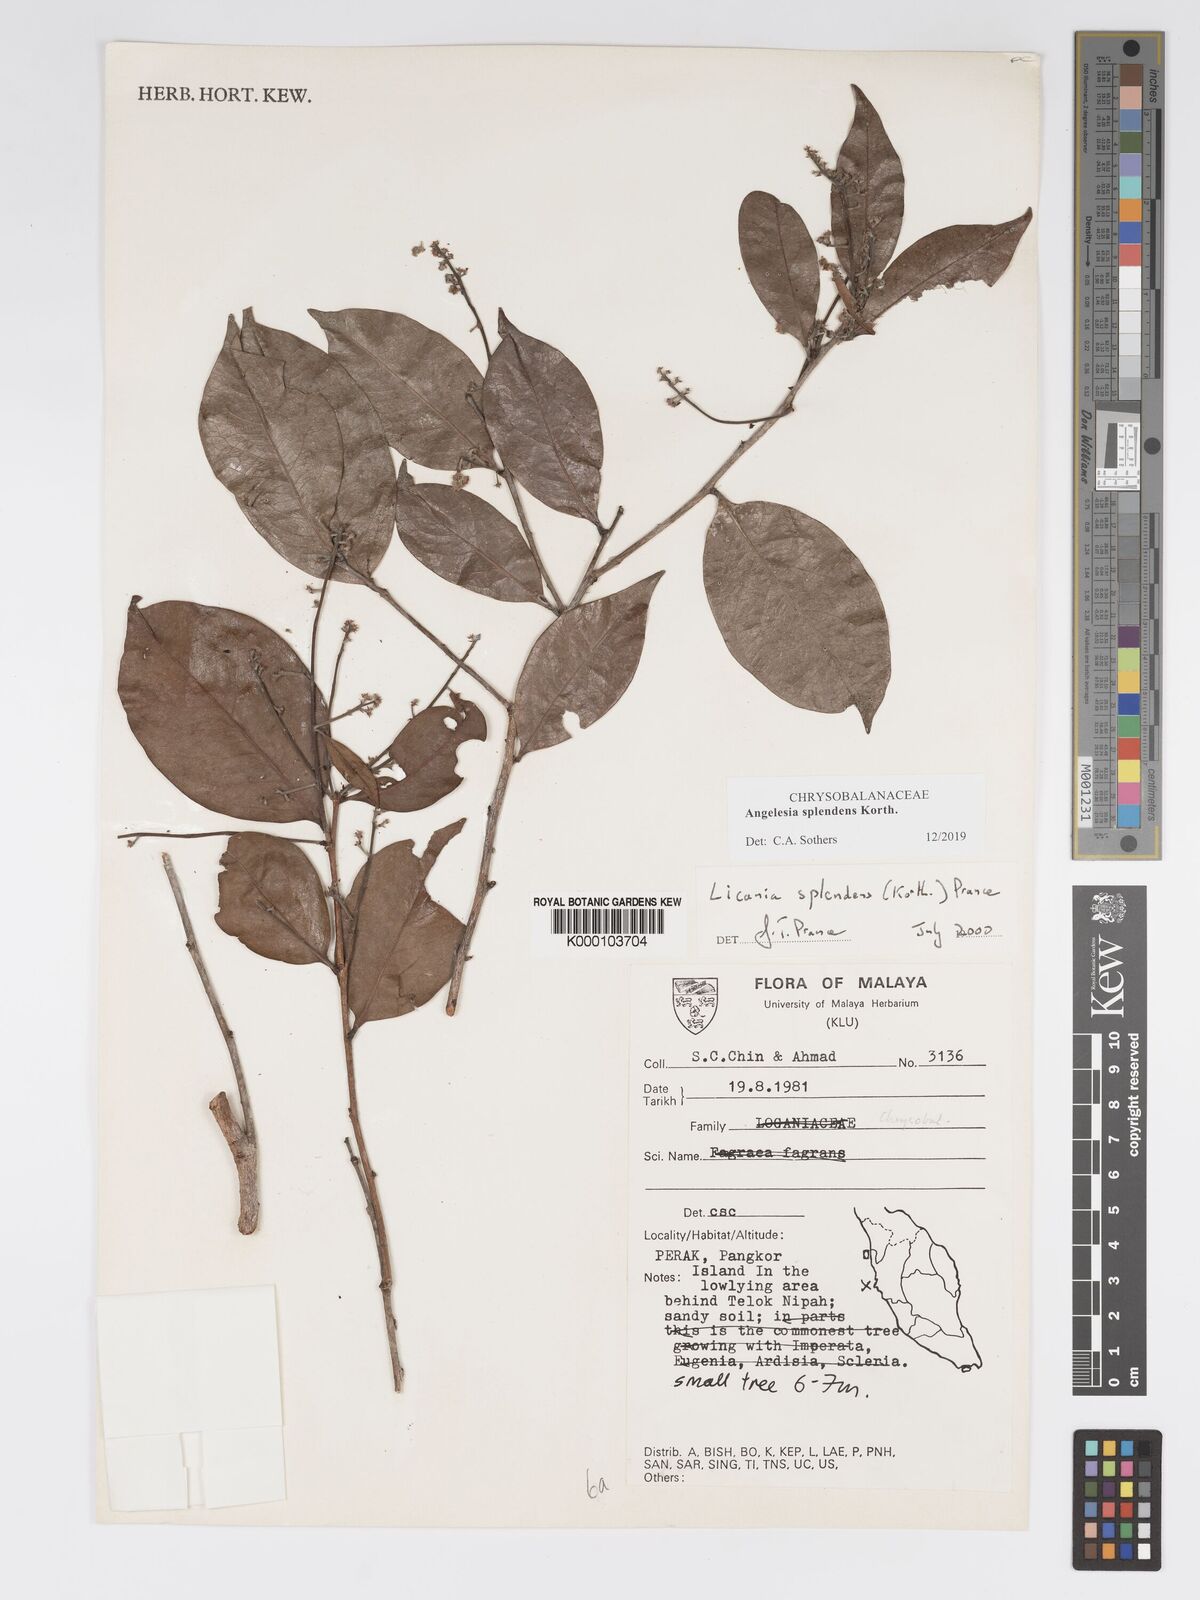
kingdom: Plantae
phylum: Tracheophyta
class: Magnoliopsida
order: Malpighiales
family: Chrysobalanaceae
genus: Angelesia
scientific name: Angelesia splendens
